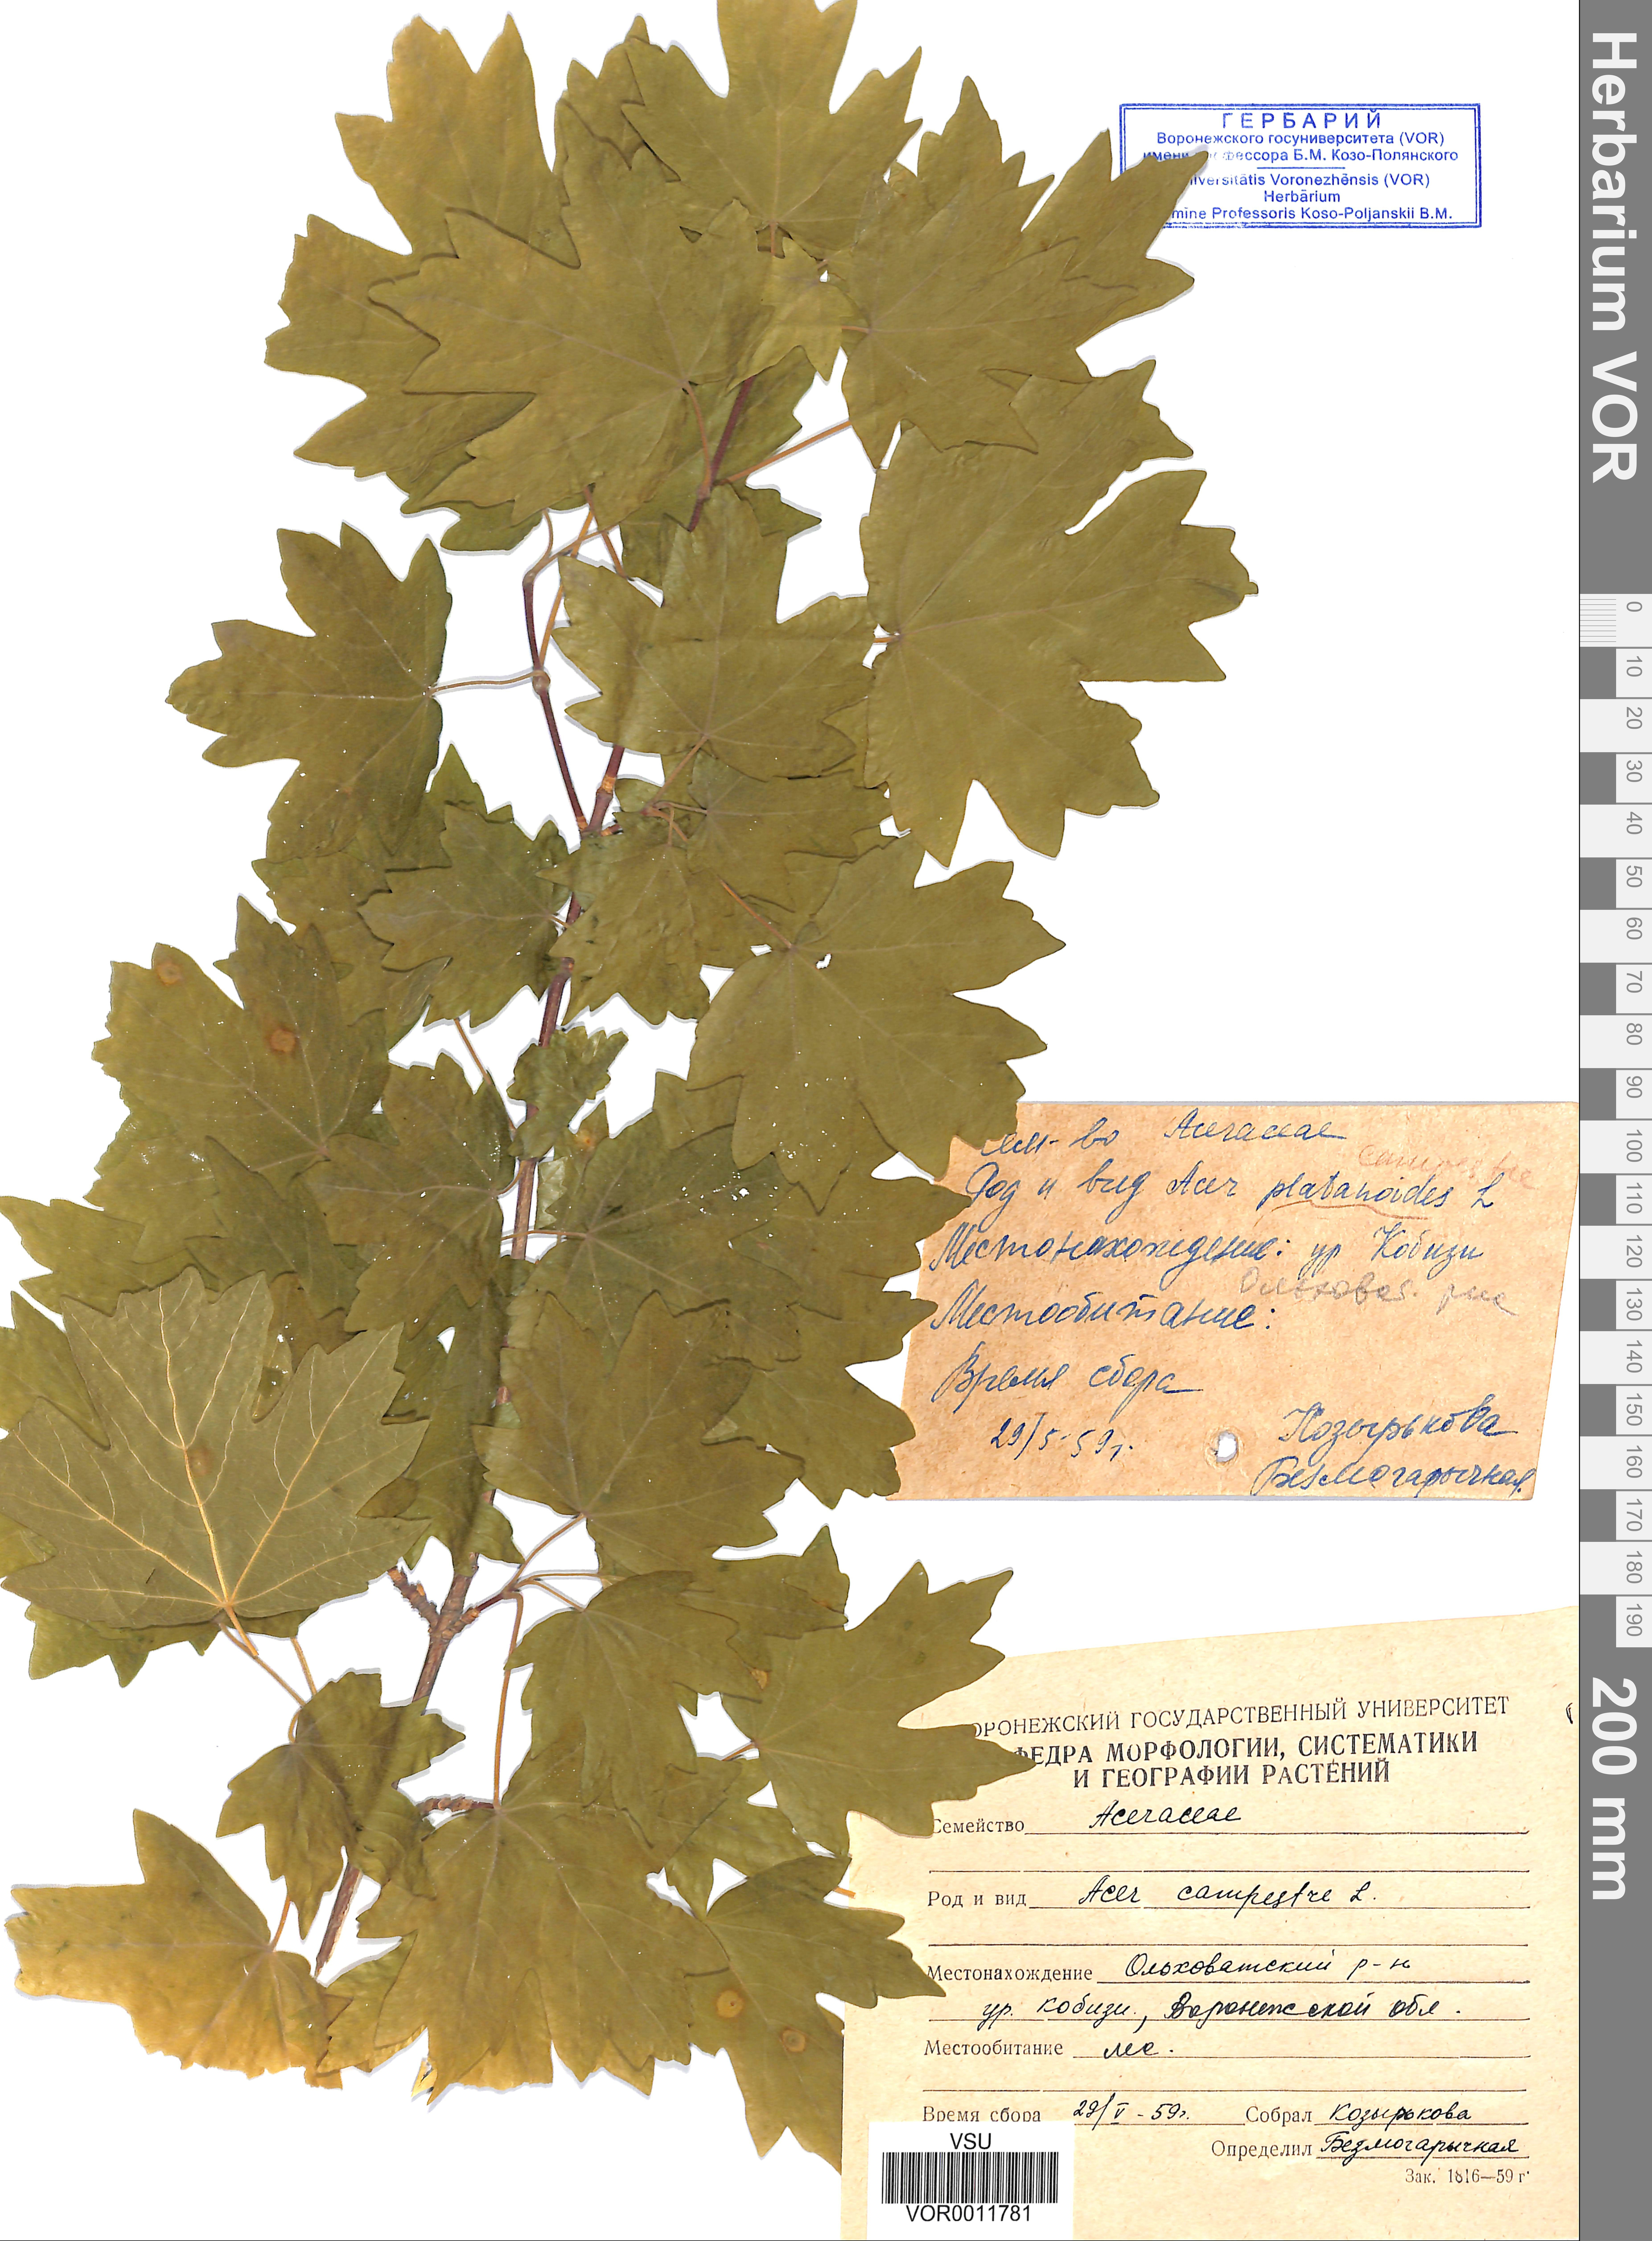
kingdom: Plantae
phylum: Tracheophyta
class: Magnoliopsida
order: Sapindales
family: Sapindaceae
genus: Acer
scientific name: Acer campestre
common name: Field maple
